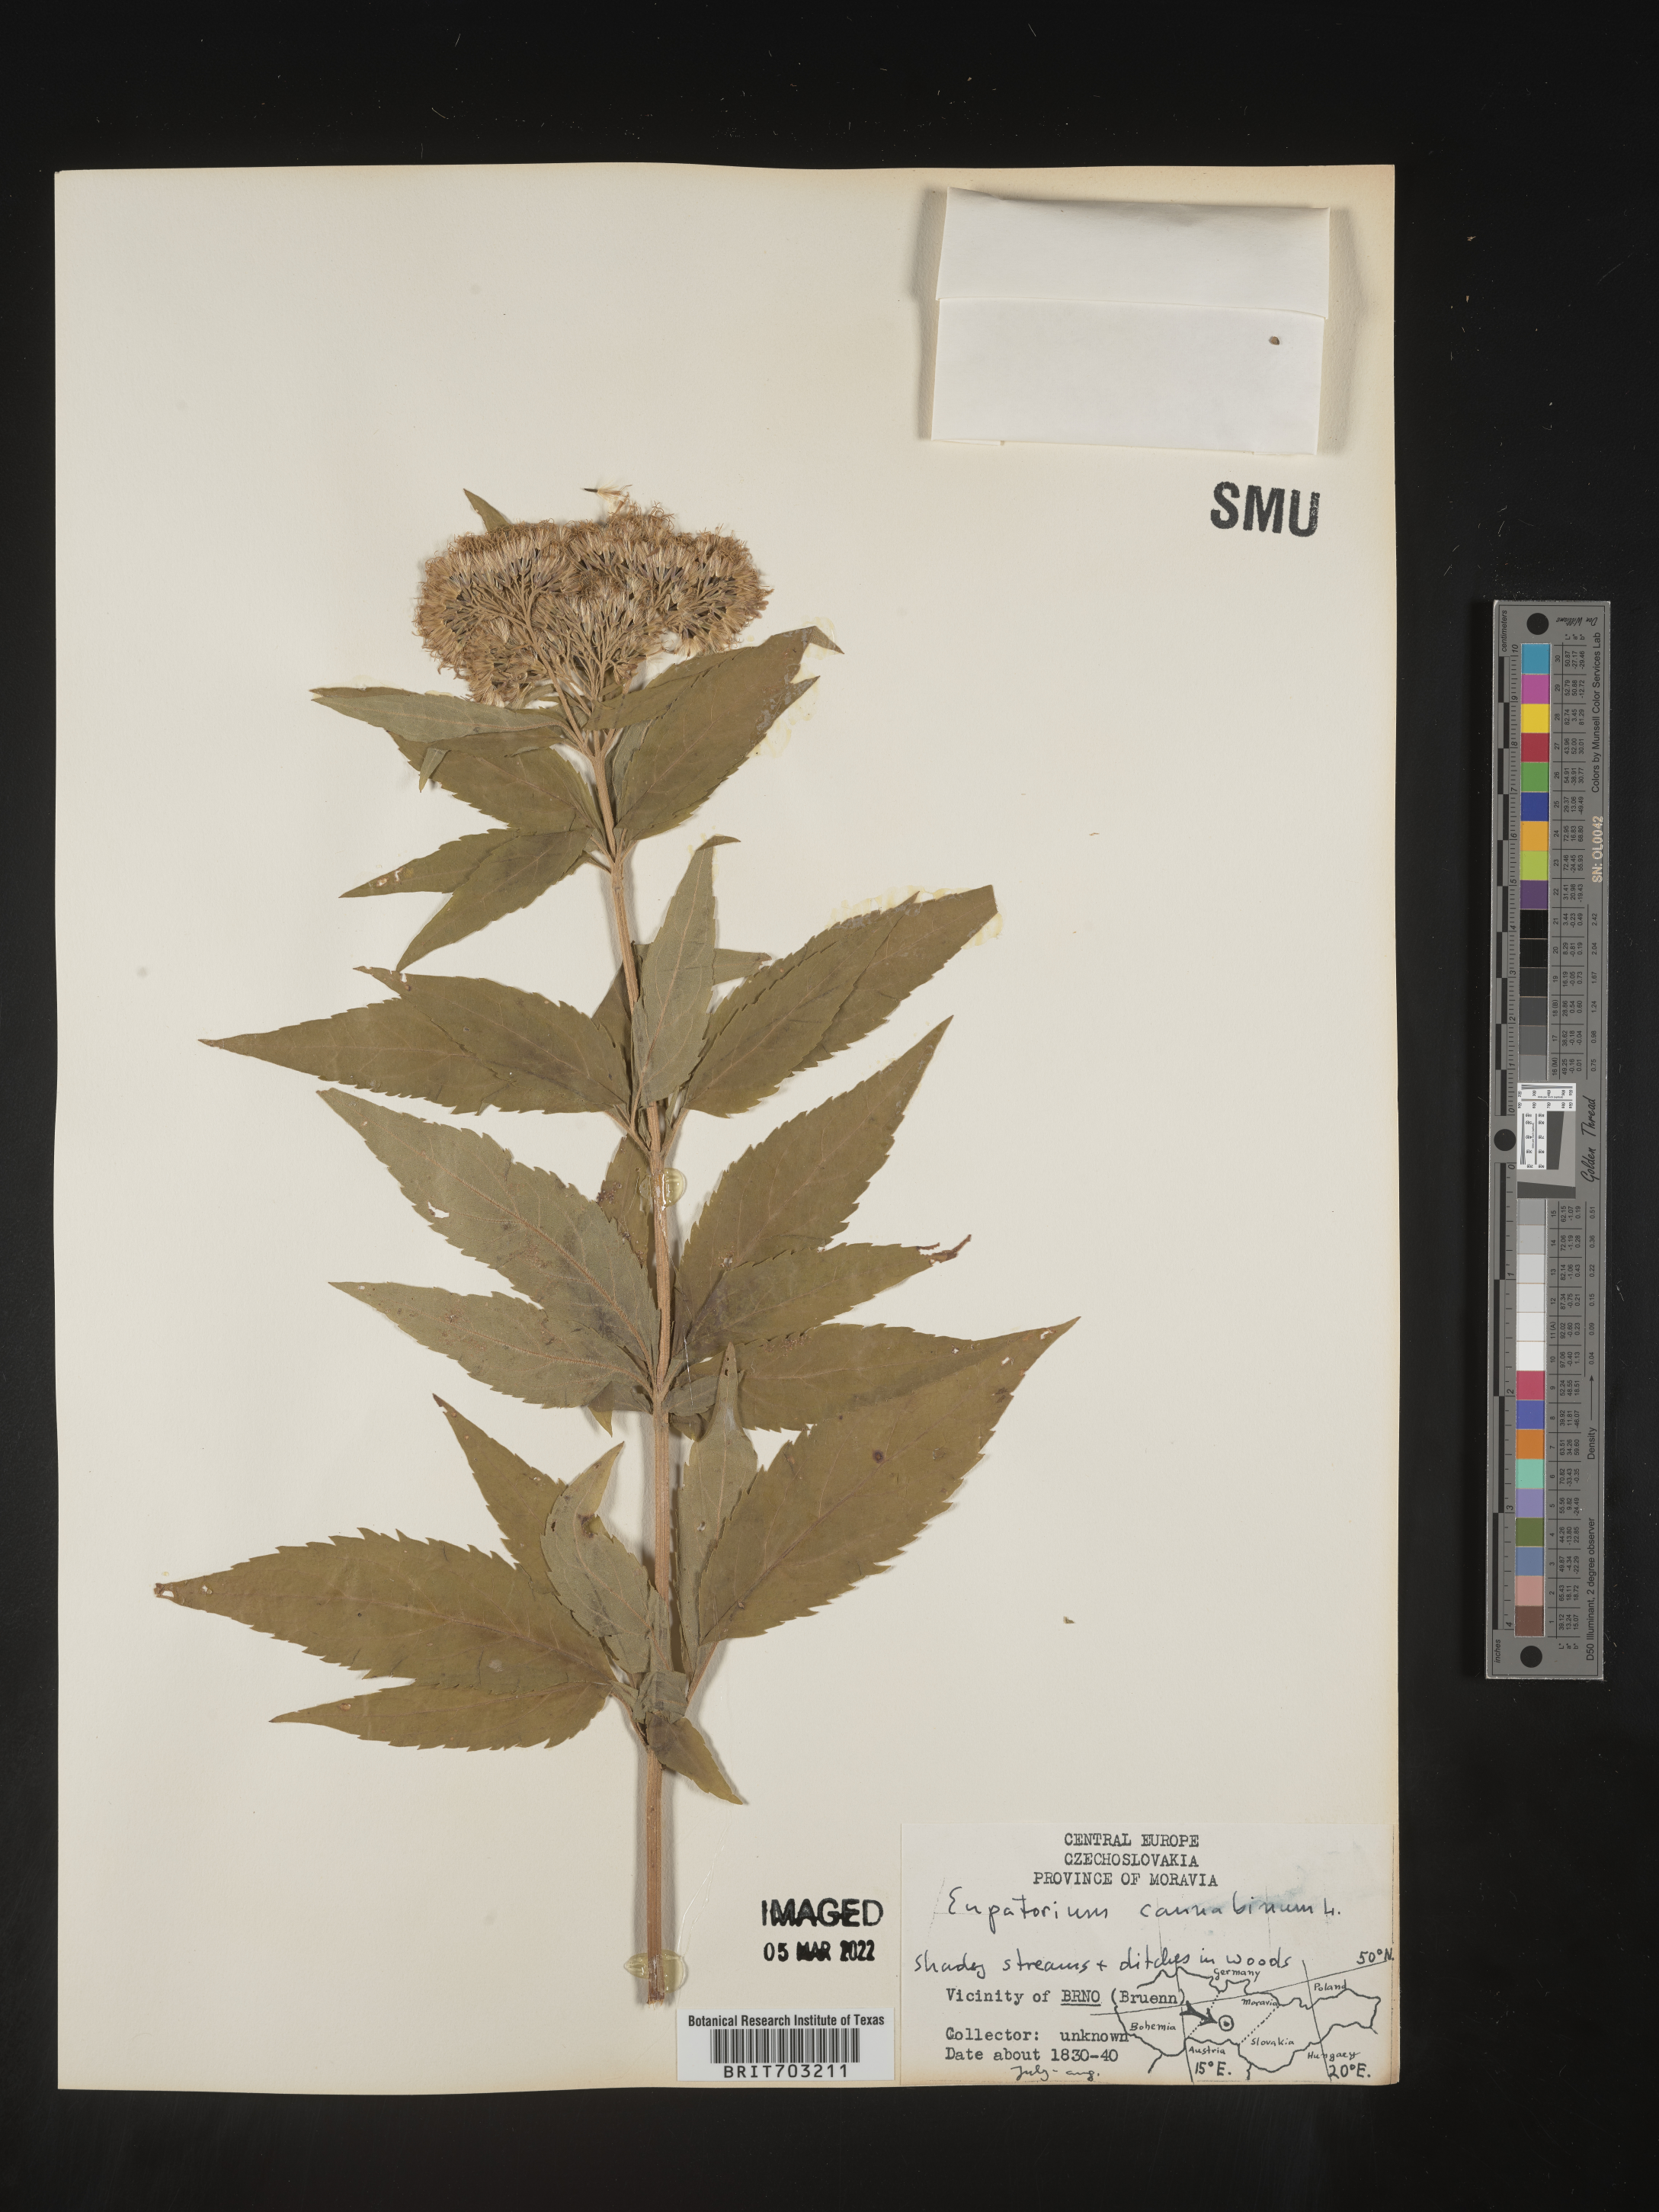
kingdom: Plantae
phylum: Tracheophyta
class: Magnoliopsida
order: Asterales
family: Asteraceae
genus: Eupatorium
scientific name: Eupatorium
